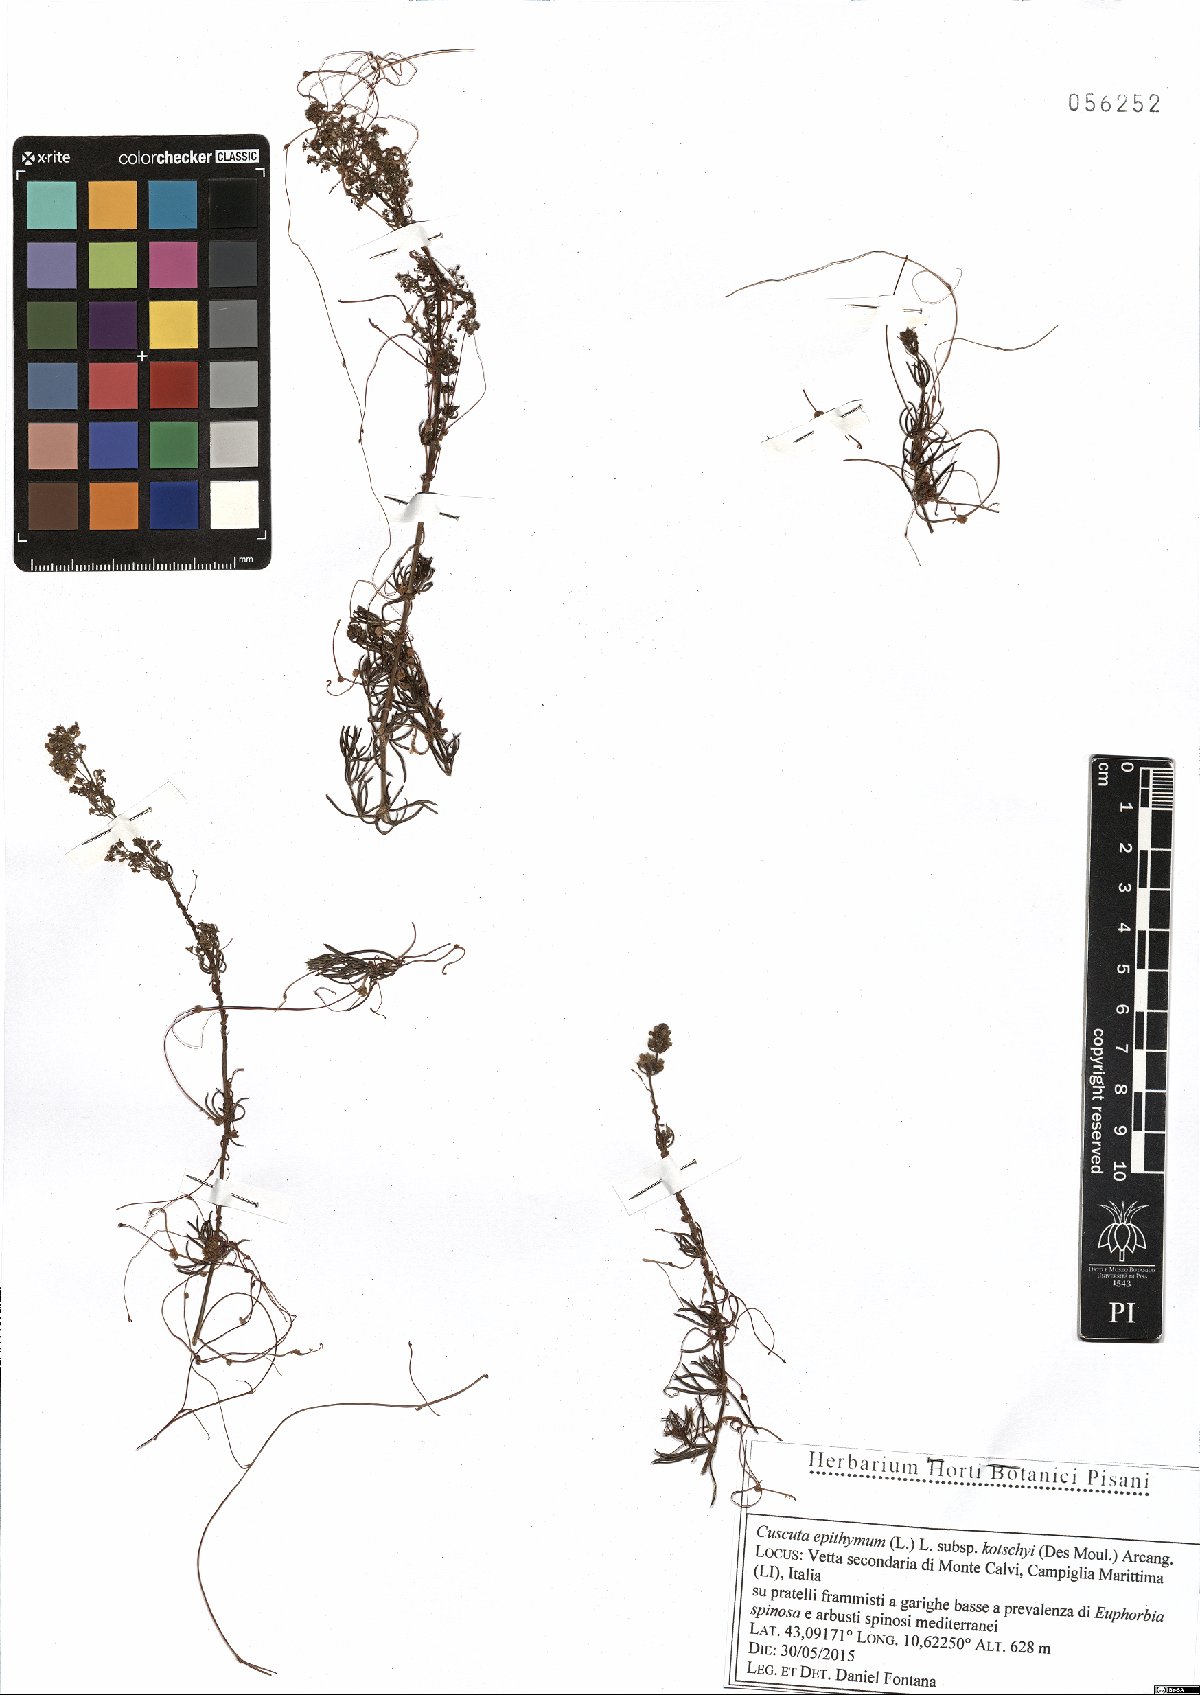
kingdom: Plantae
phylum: Tracheophyta
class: Magnoliopsida
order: Solanales
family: Convolvulaceae
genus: Cuscuta
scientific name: Cuscuta epithymum
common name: Clover dodder
